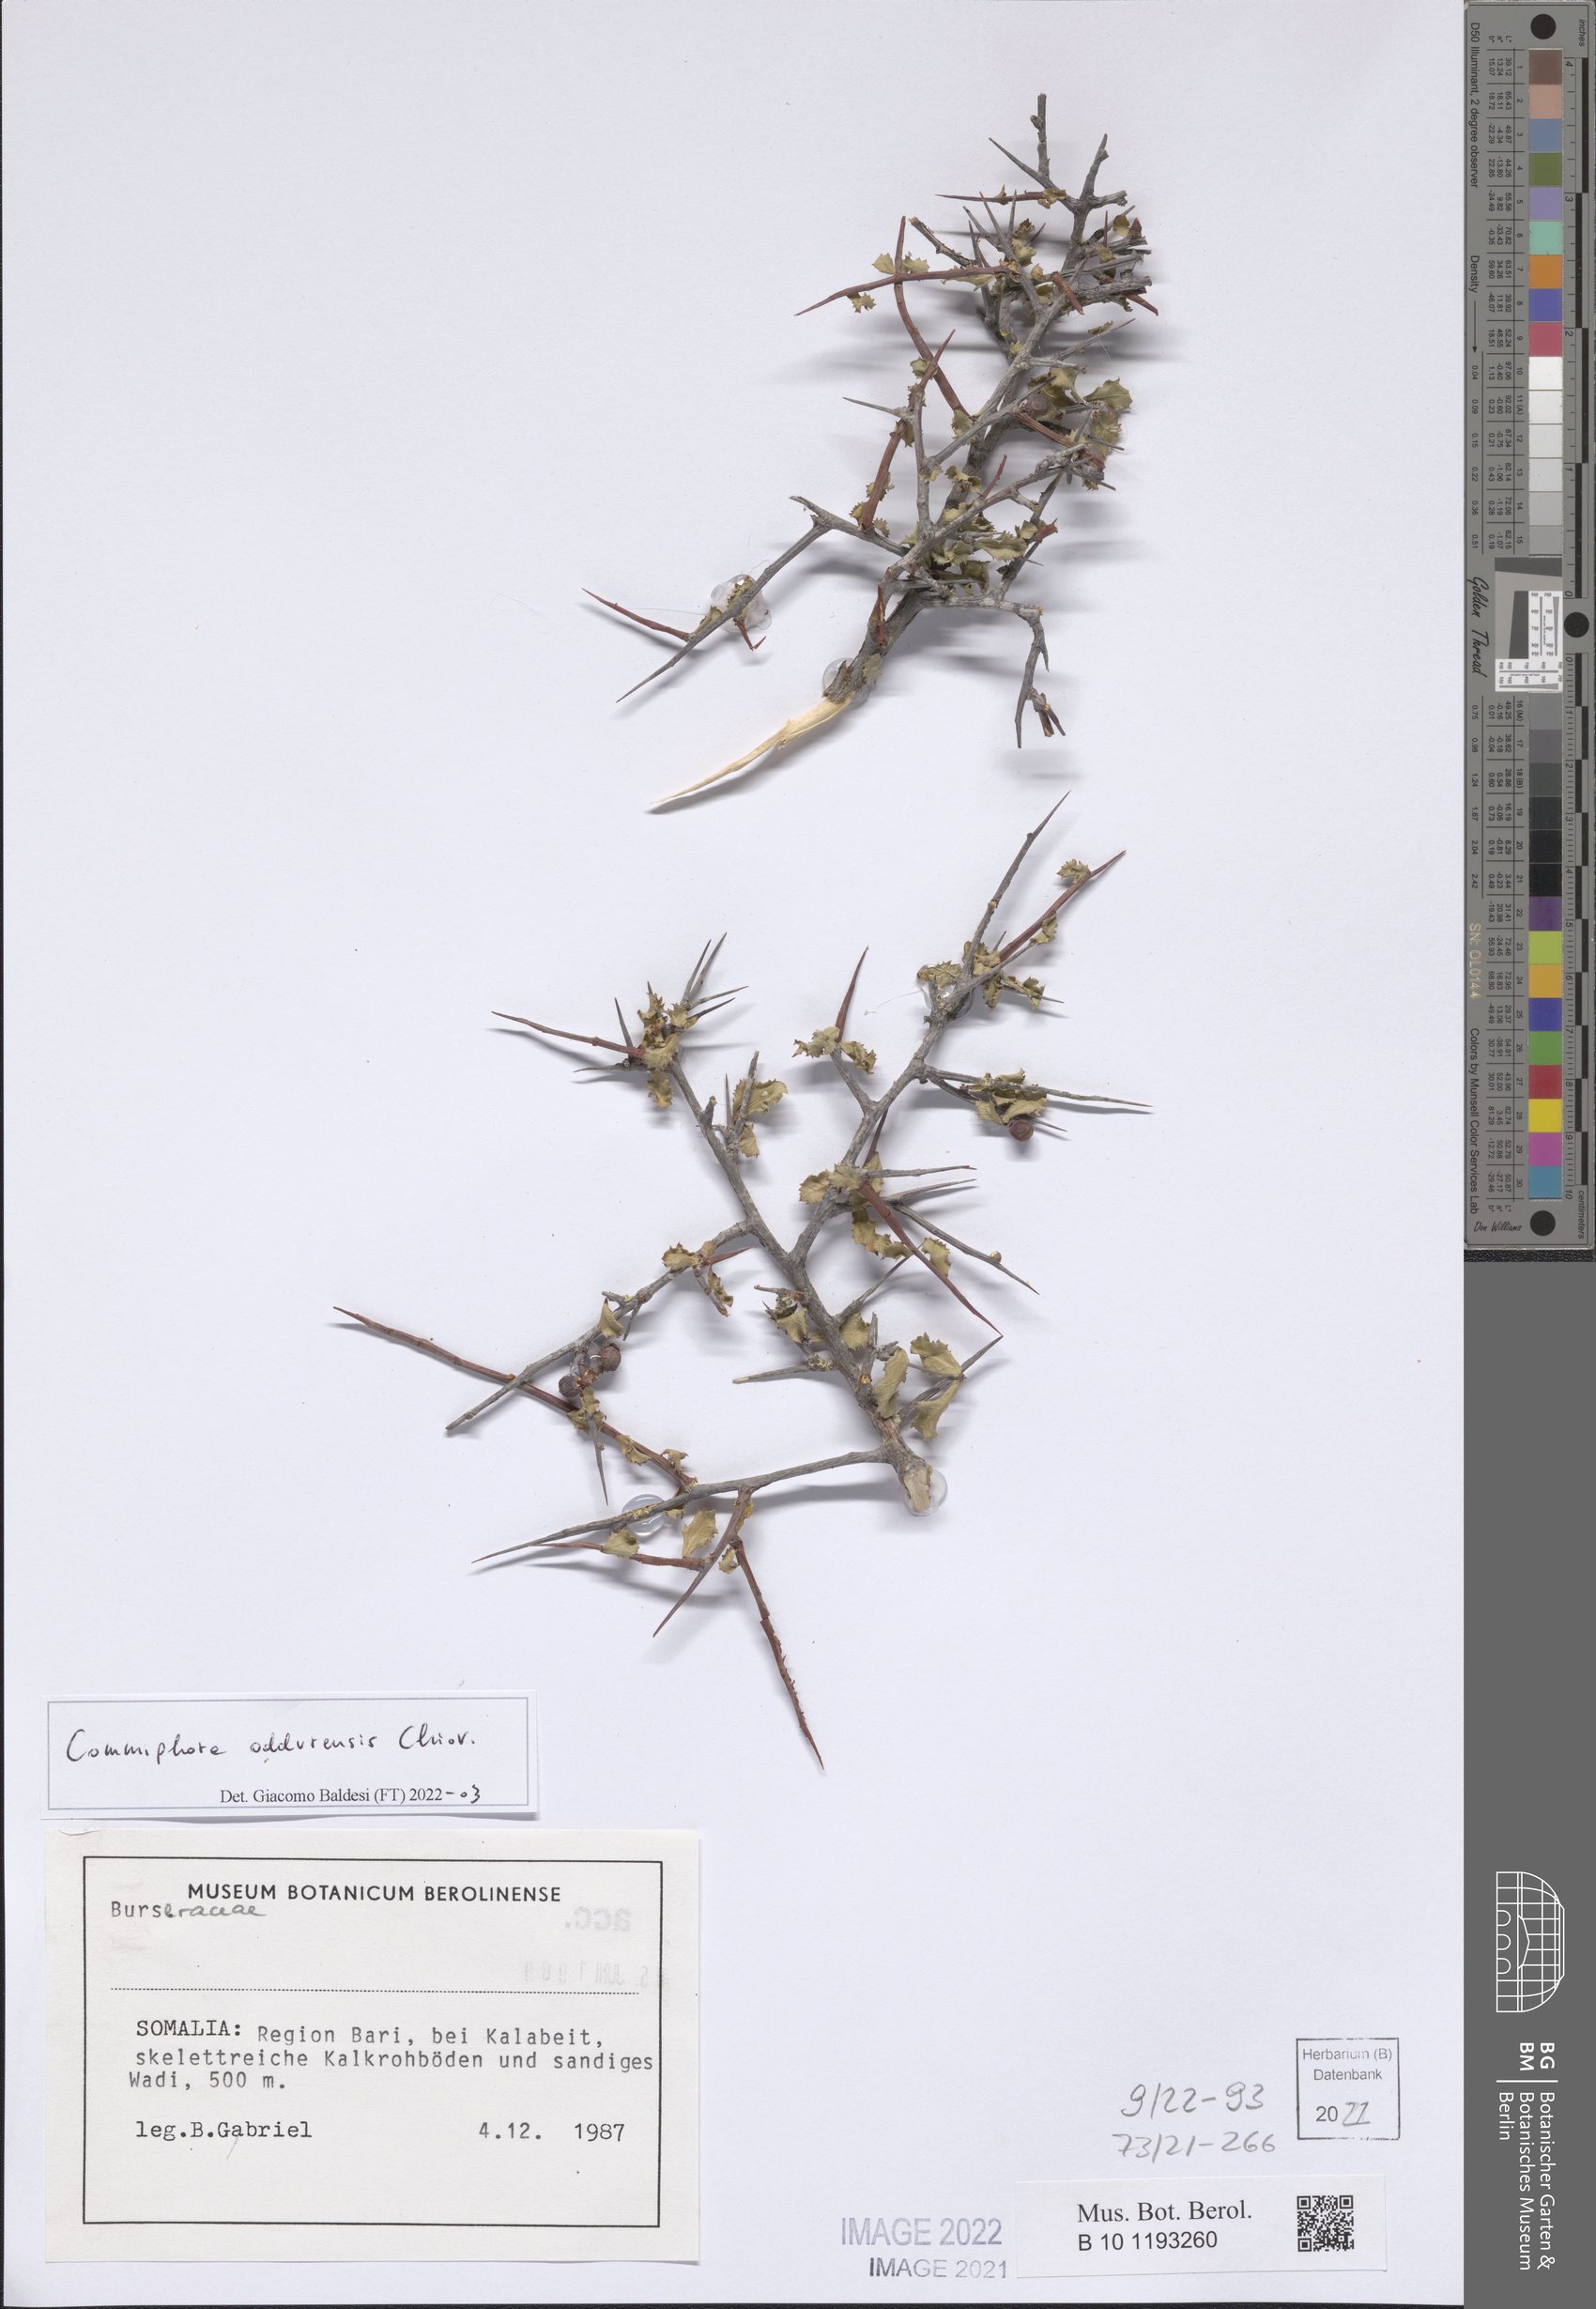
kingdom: Plantae
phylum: Tracheophyta
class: Magnoliopsida
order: Sapindales
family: Burseraceae
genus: Commiphora
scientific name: Commiphora oddurensis
